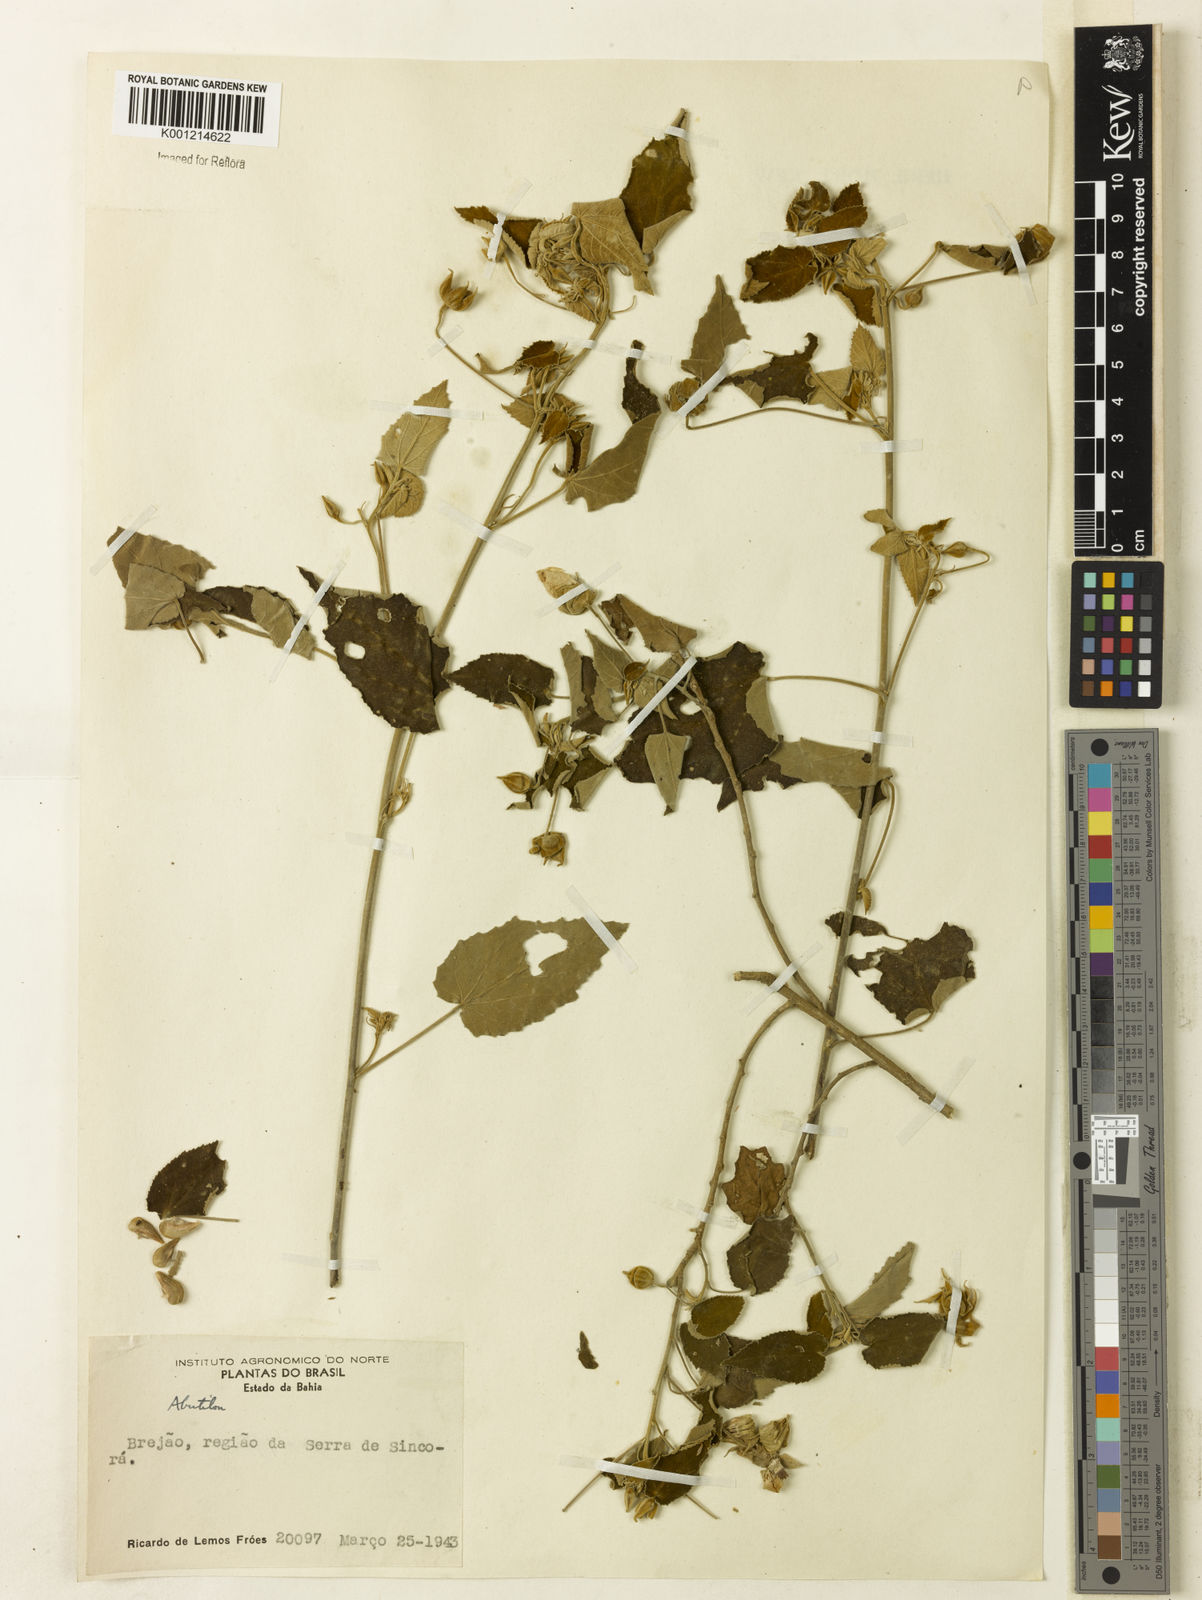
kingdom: Plantae
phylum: Tracheophyta
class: Magnoliopsida
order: Malvales
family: Malvaceae
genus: Gaya
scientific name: Gaya
